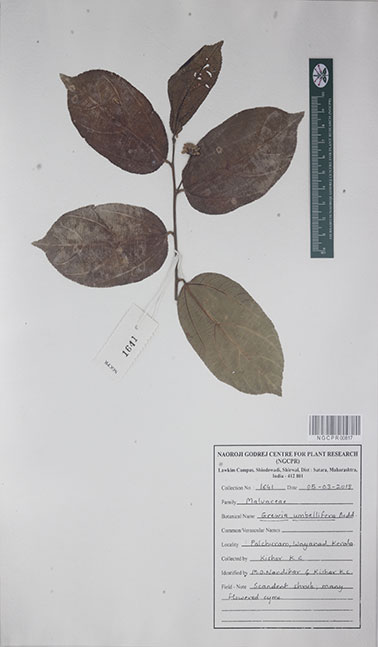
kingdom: Plantae
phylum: Tracheophyta
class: Magnoliopsida
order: Malvales
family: Malvaceae
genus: Grewia
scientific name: Grewia umbellifera
